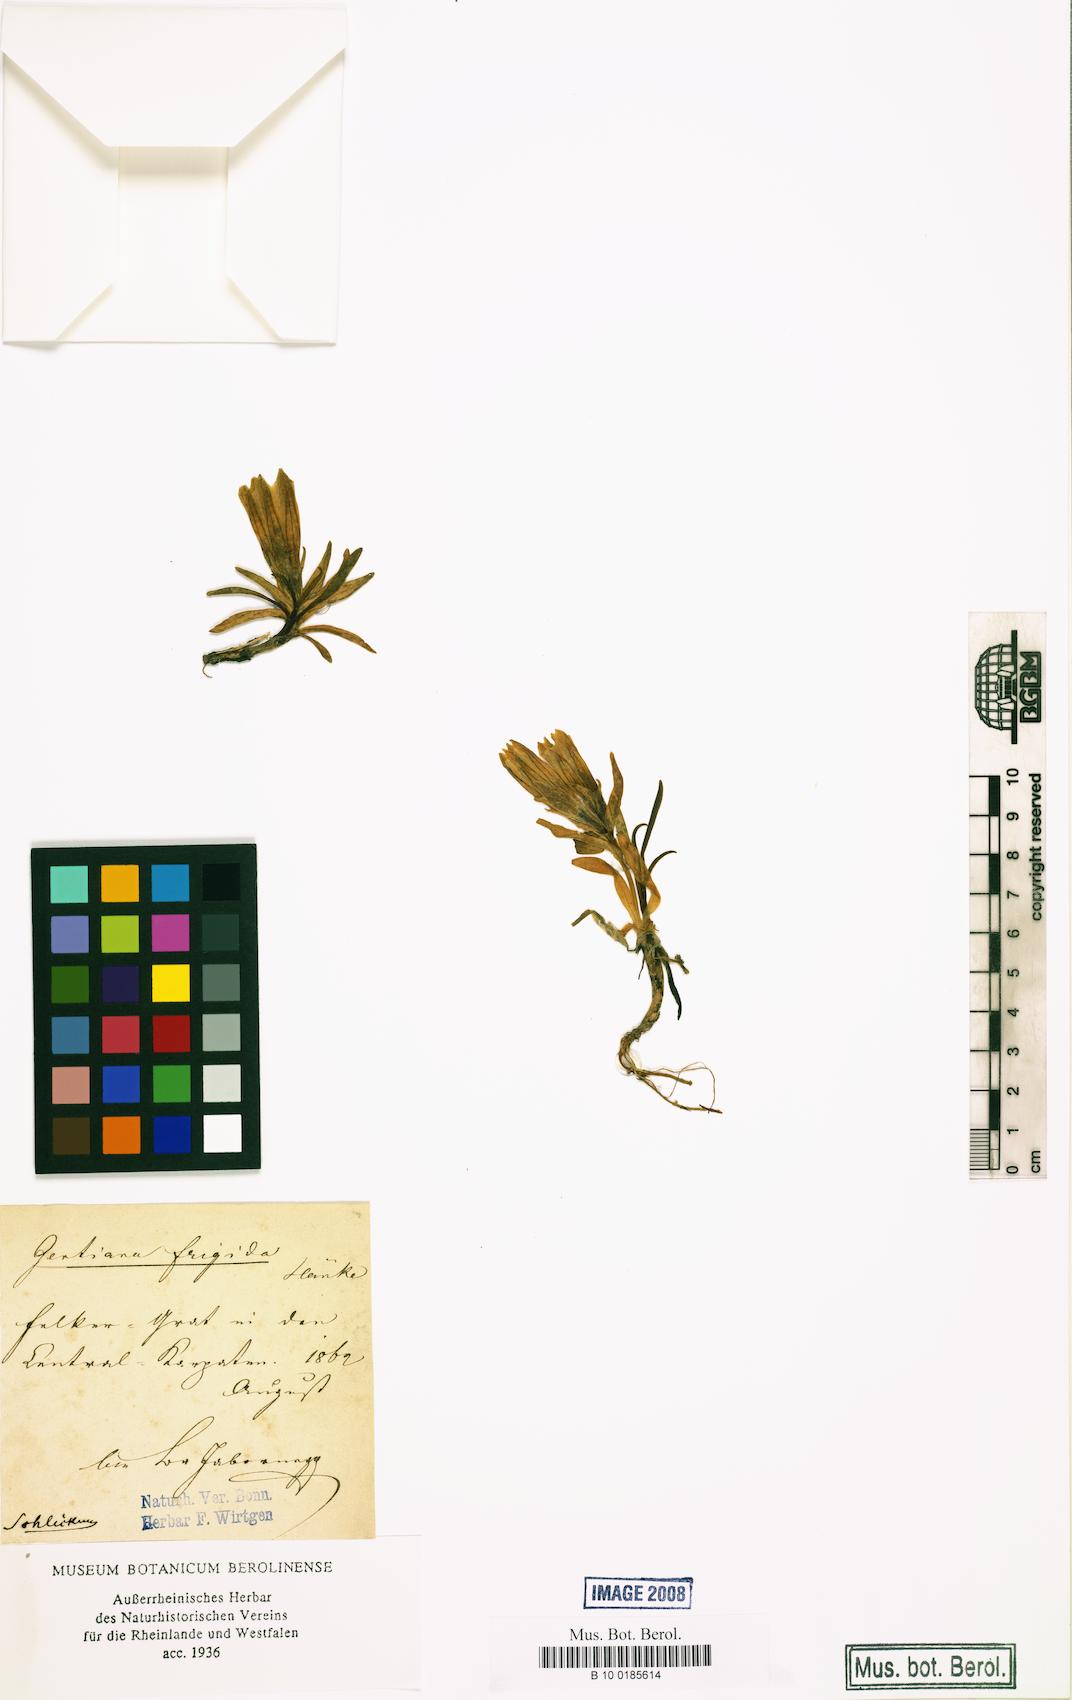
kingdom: Plantae
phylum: Tracheophyta
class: Magnoliopsida
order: Gentianales
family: Gentianaceae
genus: Gentiana
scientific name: Gentiana frigida
